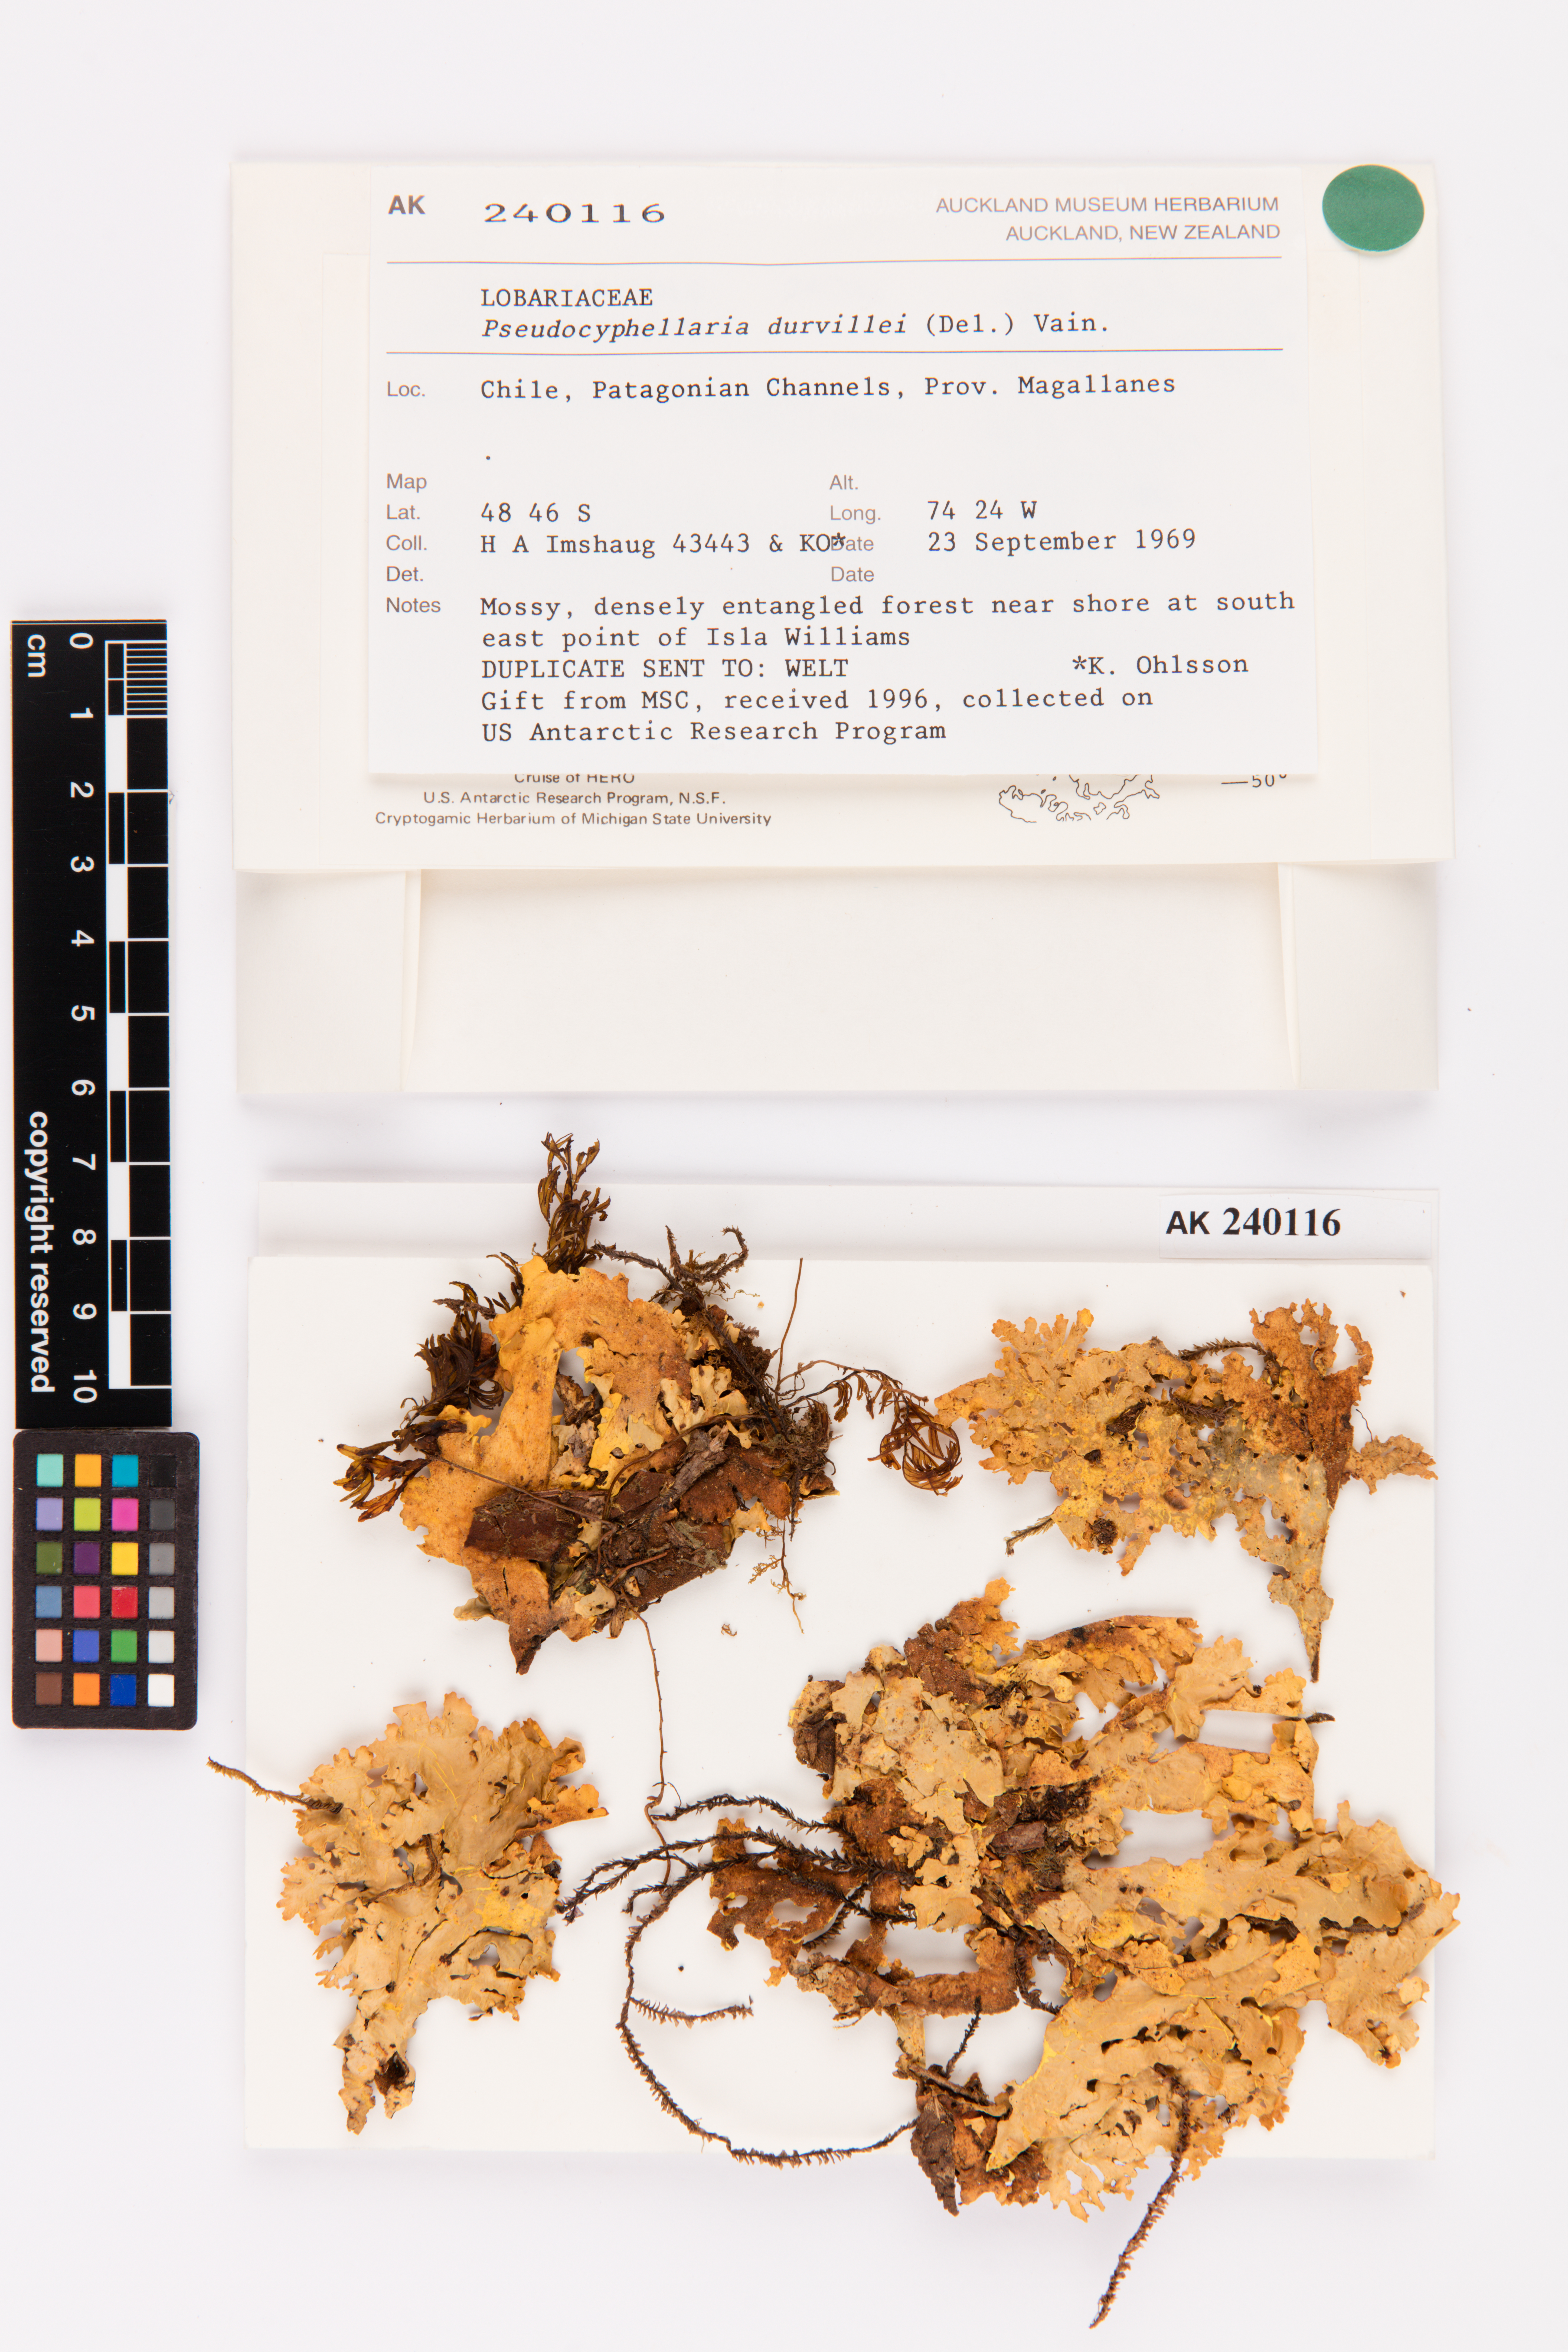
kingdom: Fungi
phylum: Ascomycota
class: Lecanoromycetes
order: Peltigerales
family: Lobariaceae
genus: Yarrumia
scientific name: Yarrumia coronata
